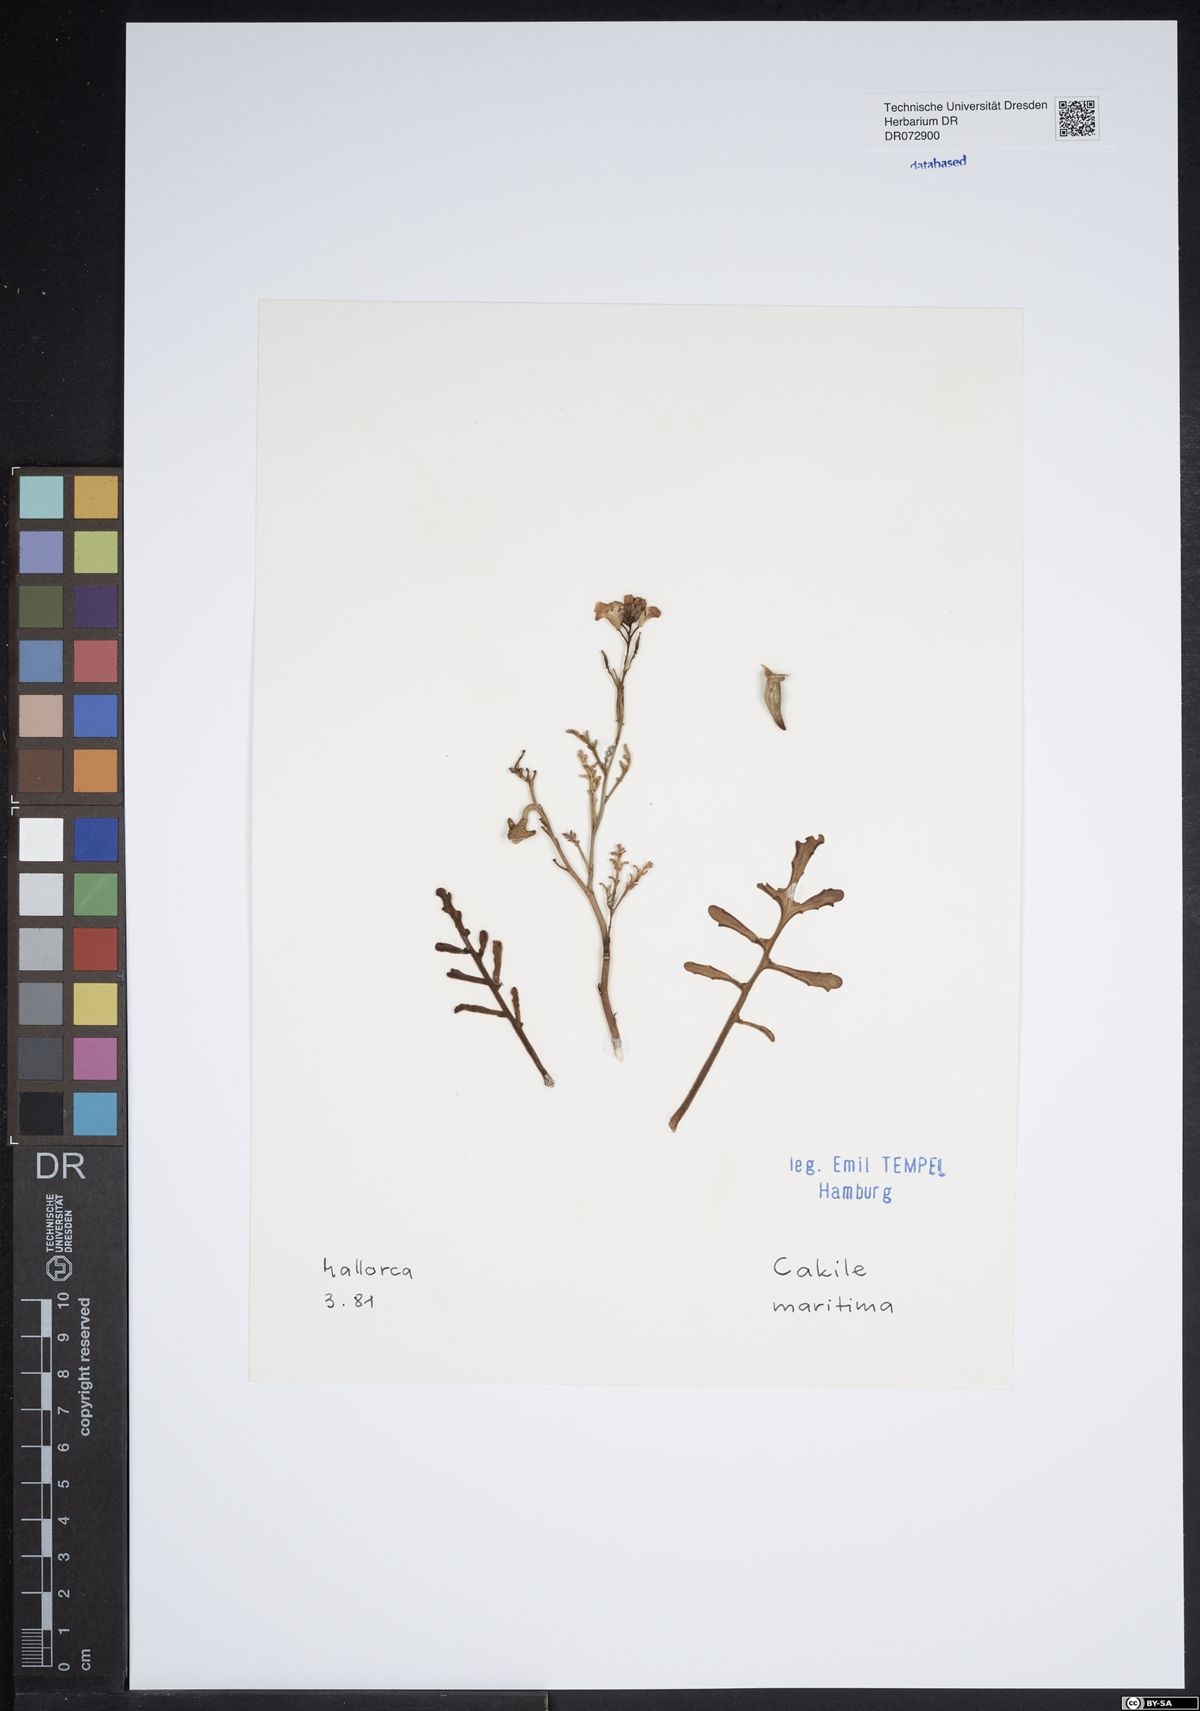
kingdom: Plantae
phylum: Tracheophyta
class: Magnoliopsida
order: Brassicales
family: Brassicaceae
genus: Cakile
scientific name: Cakile maritima
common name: Sea rocket
